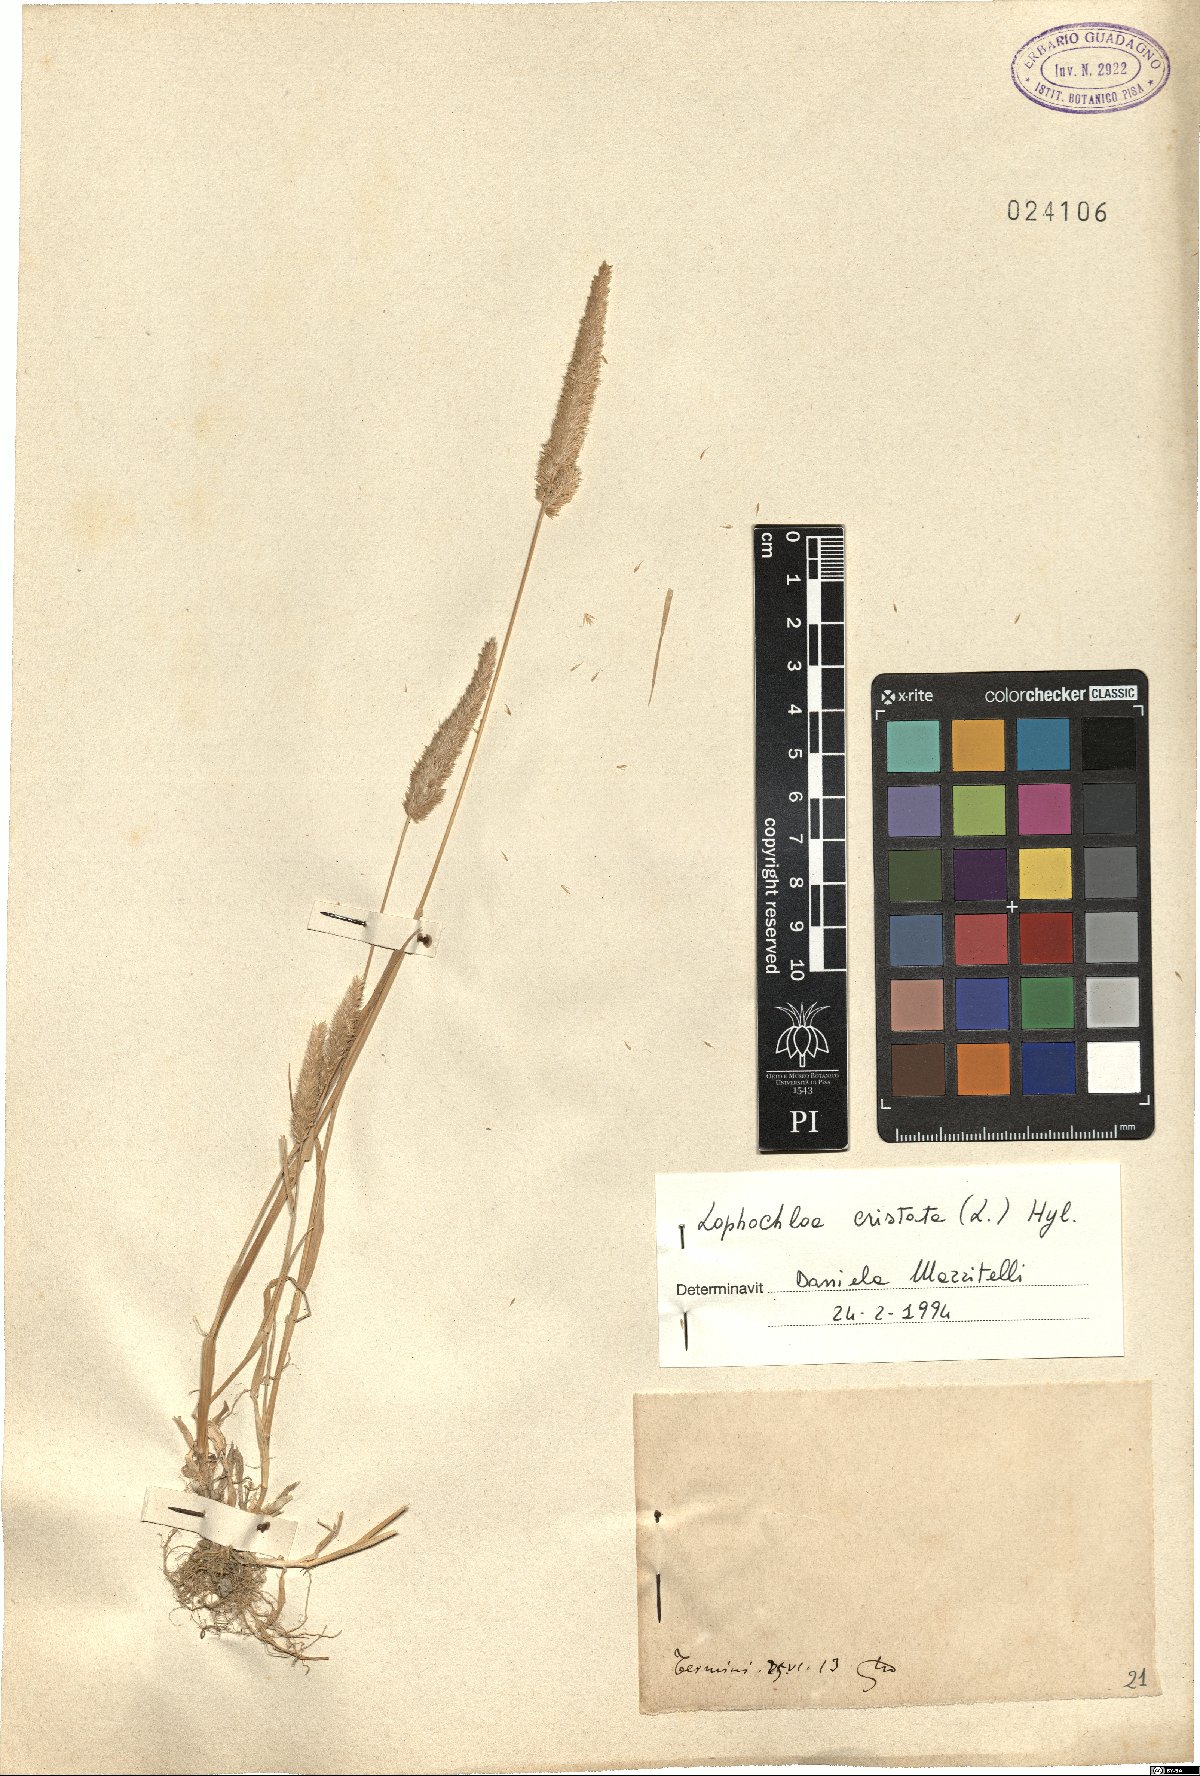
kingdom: Plantae
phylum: Tracheophyta
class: Liliopsida
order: Poales
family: Poaceae
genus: Rostraria
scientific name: Rostraria cristata
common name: Mediterranean hair-grass
